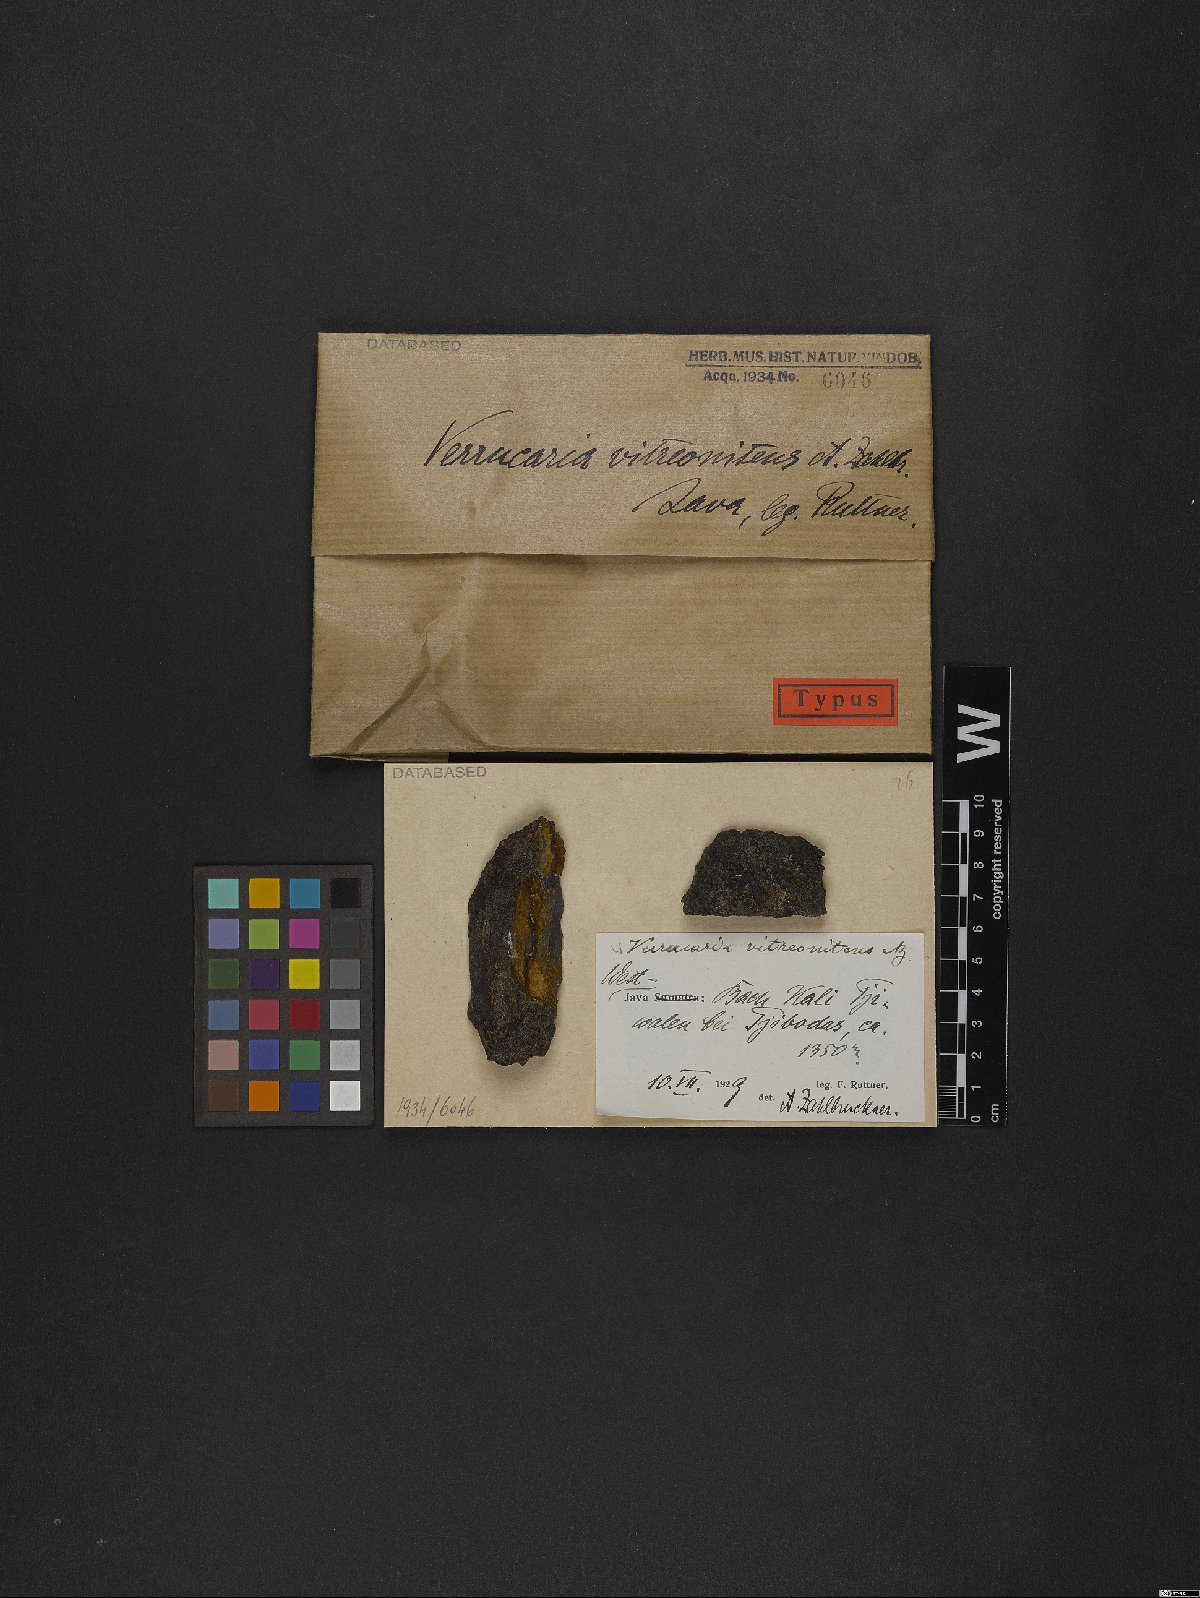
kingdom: Fungi
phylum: Ascomycota
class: Eurotiomycetes
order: Verrucariales
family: Verrucariaceae
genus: Verrucaria
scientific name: Verrucaria
